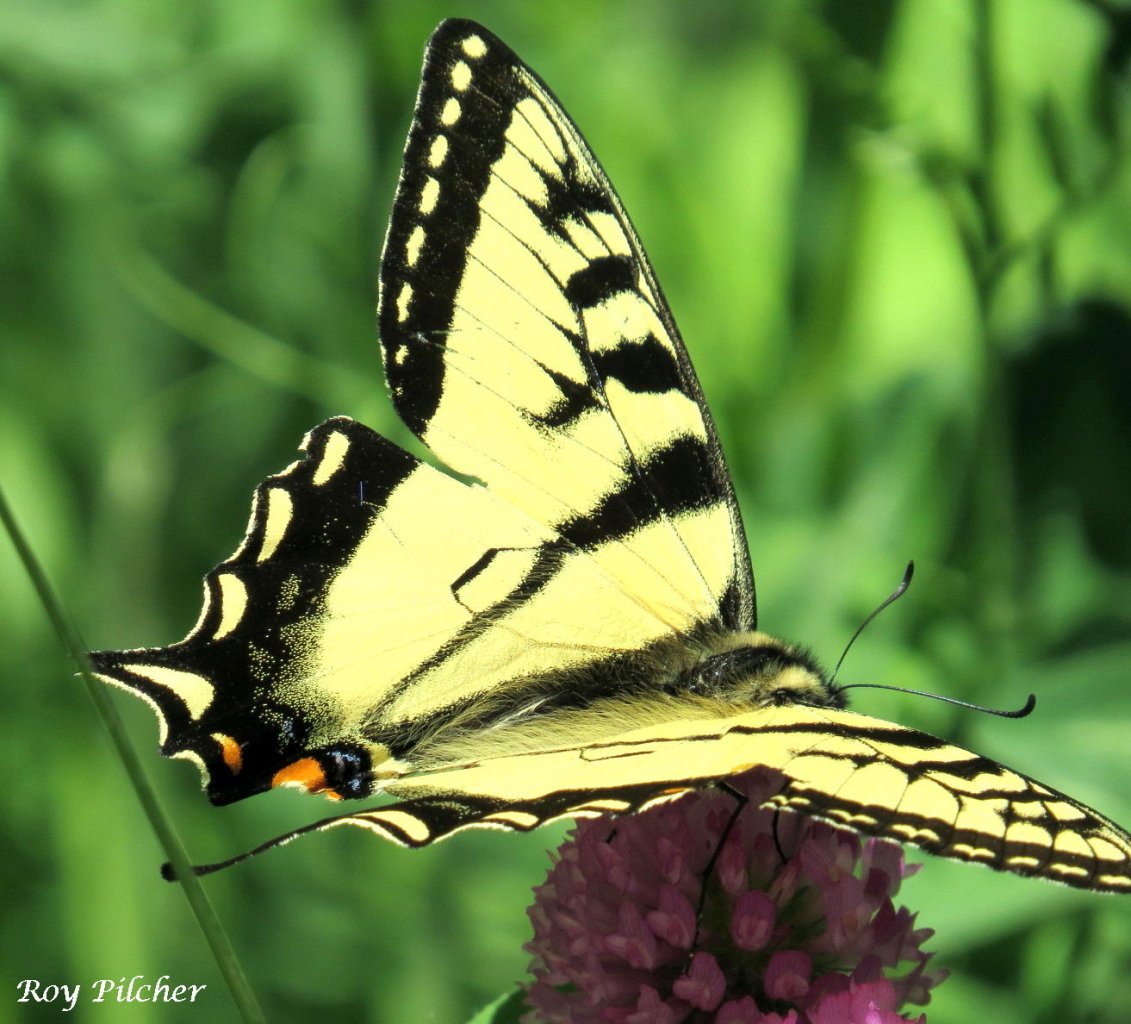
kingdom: Animalia
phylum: Arthropoda
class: Insecta
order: Lepidoptera
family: Papilionidae
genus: Pterourus
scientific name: Pterourus canadensis
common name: Canadian Tiger Swallowtail
